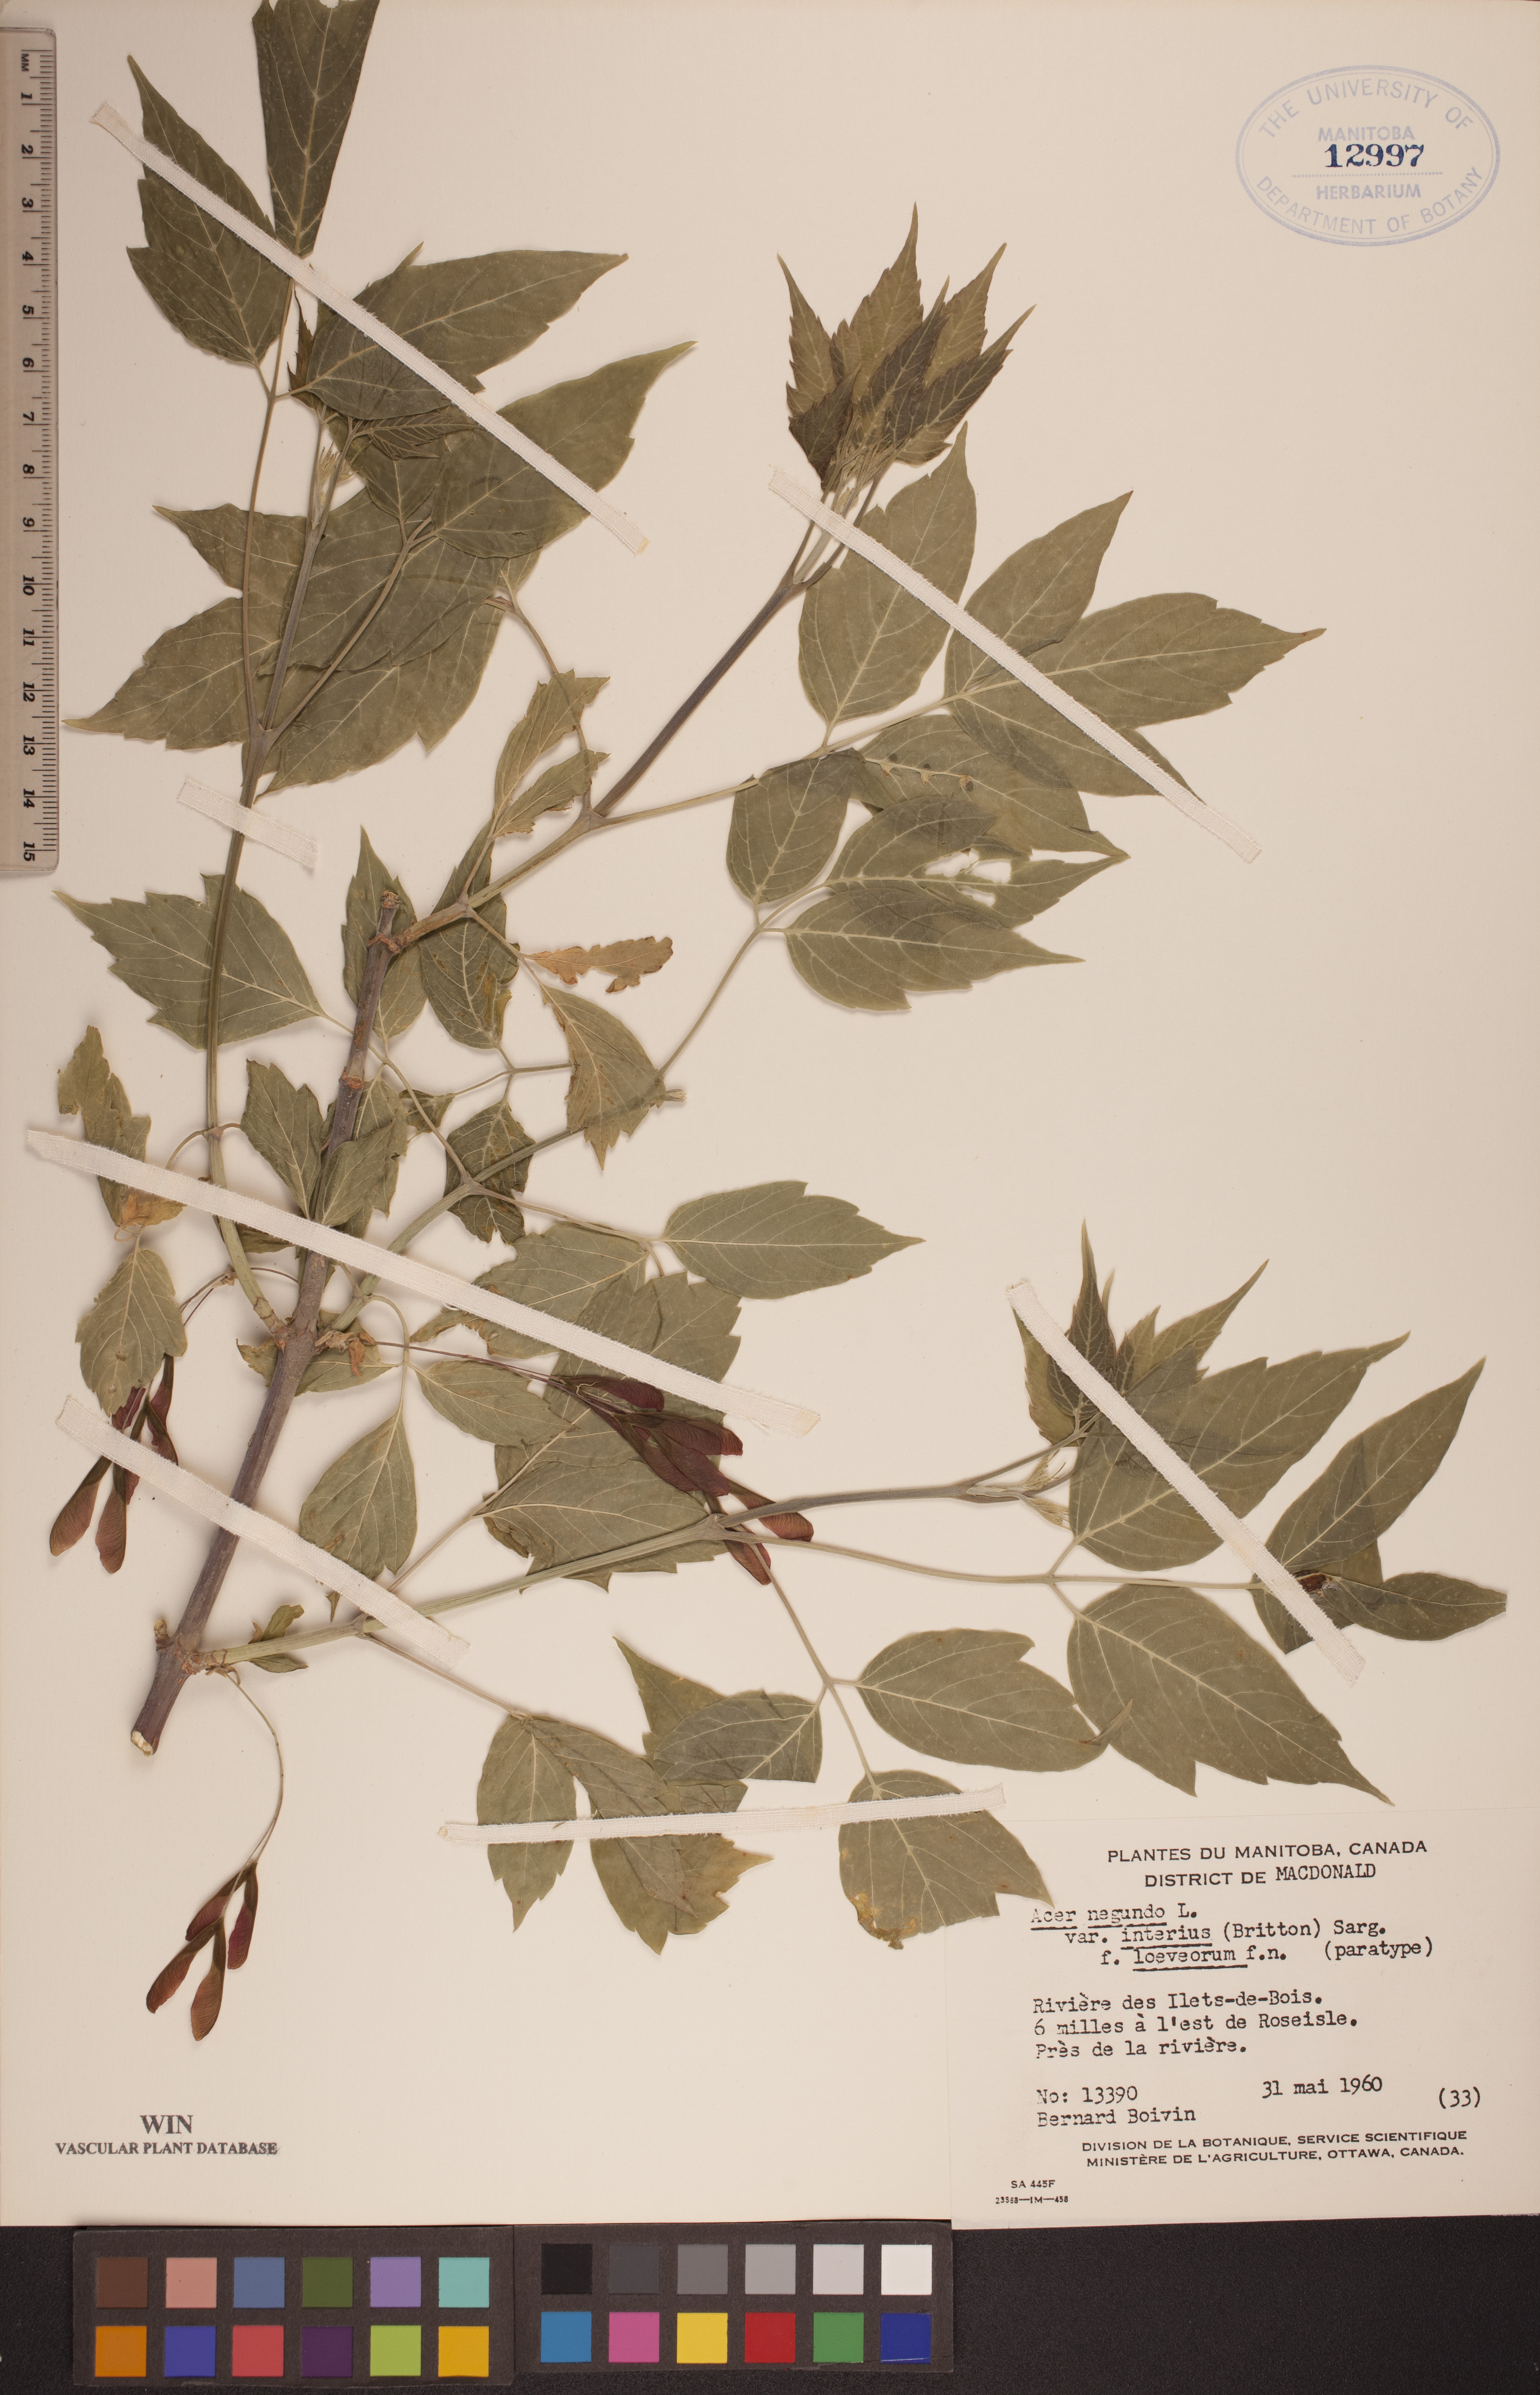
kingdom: Plantae
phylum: Tracheophyta
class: Magnoliopsida
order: Sapindales
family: Sapindaceae
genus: Acer
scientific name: Acer negundo
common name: Ashleaf maple
